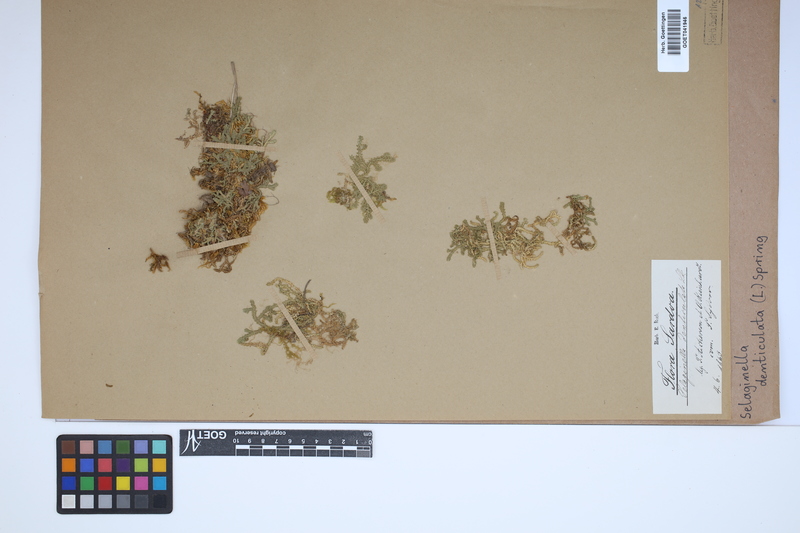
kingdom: Plantae
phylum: Tracheophyta
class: Lycopodiopsida
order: Selaginellales
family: Selaginellaceae
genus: Selaginella
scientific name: Selaginella denticulata
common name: Toothed-leaved clubmoss
